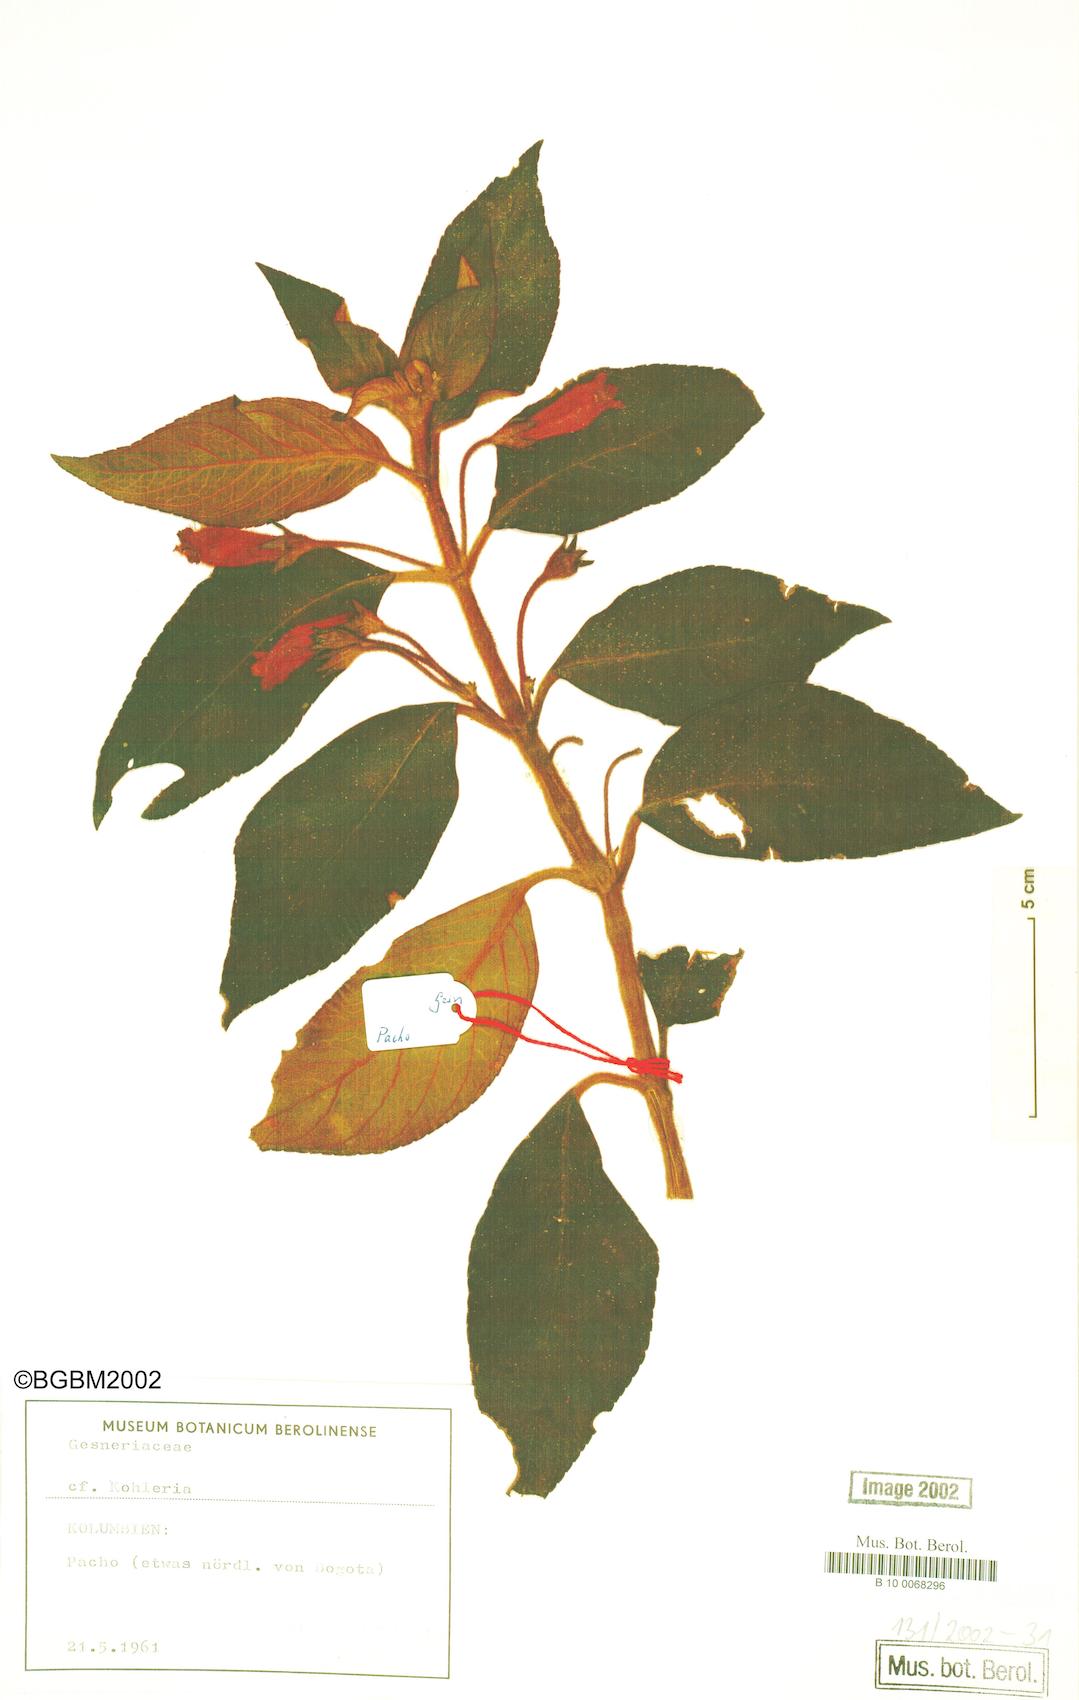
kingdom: Plantae
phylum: Tracheophyta
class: Magnoliopsida
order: Lamiales
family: Gesneriaceae
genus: Kohleria
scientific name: Kohleria
